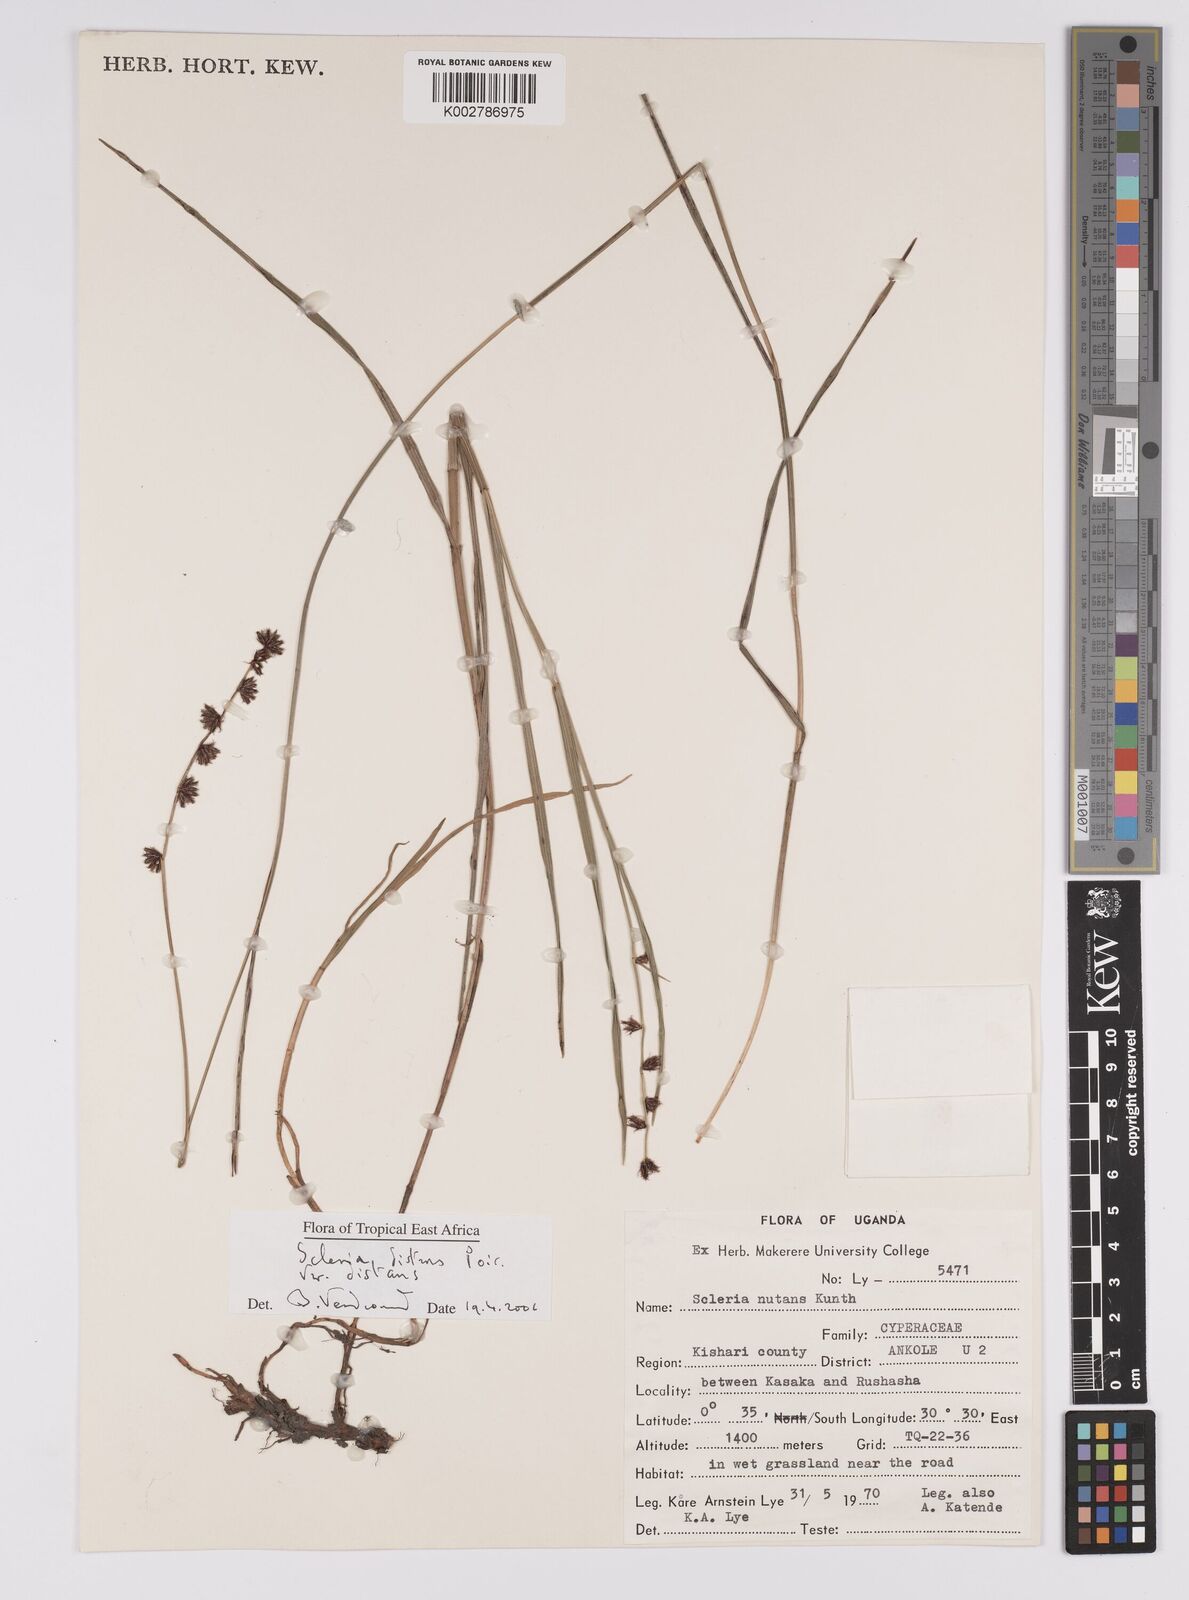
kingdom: Plantae
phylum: Tracheophyta
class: Liliopsida
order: Poales
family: Cyperaceae
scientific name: Cyperaceae
